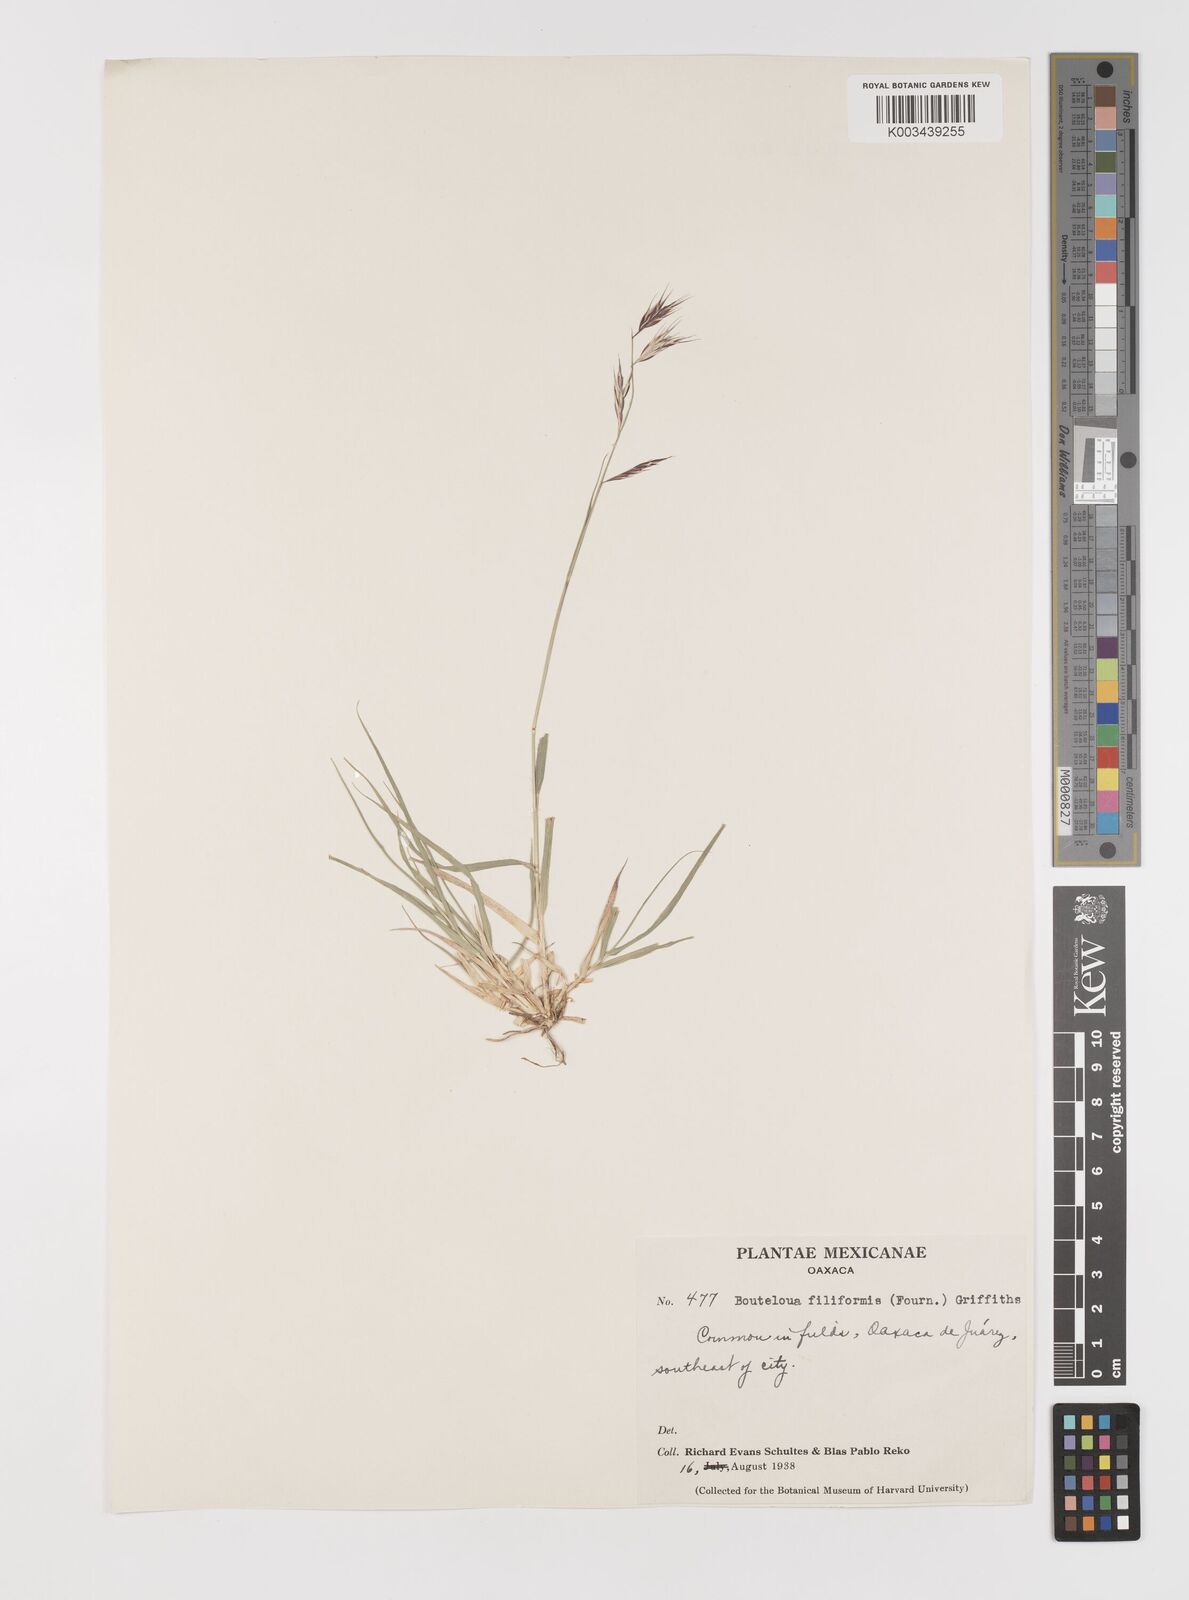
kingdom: Plantae
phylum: Tracheophyta
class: Liliopsida
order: Poales
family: Poaceae
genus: Bouteloua
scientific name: Bouteloua repens
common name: Slender grama
